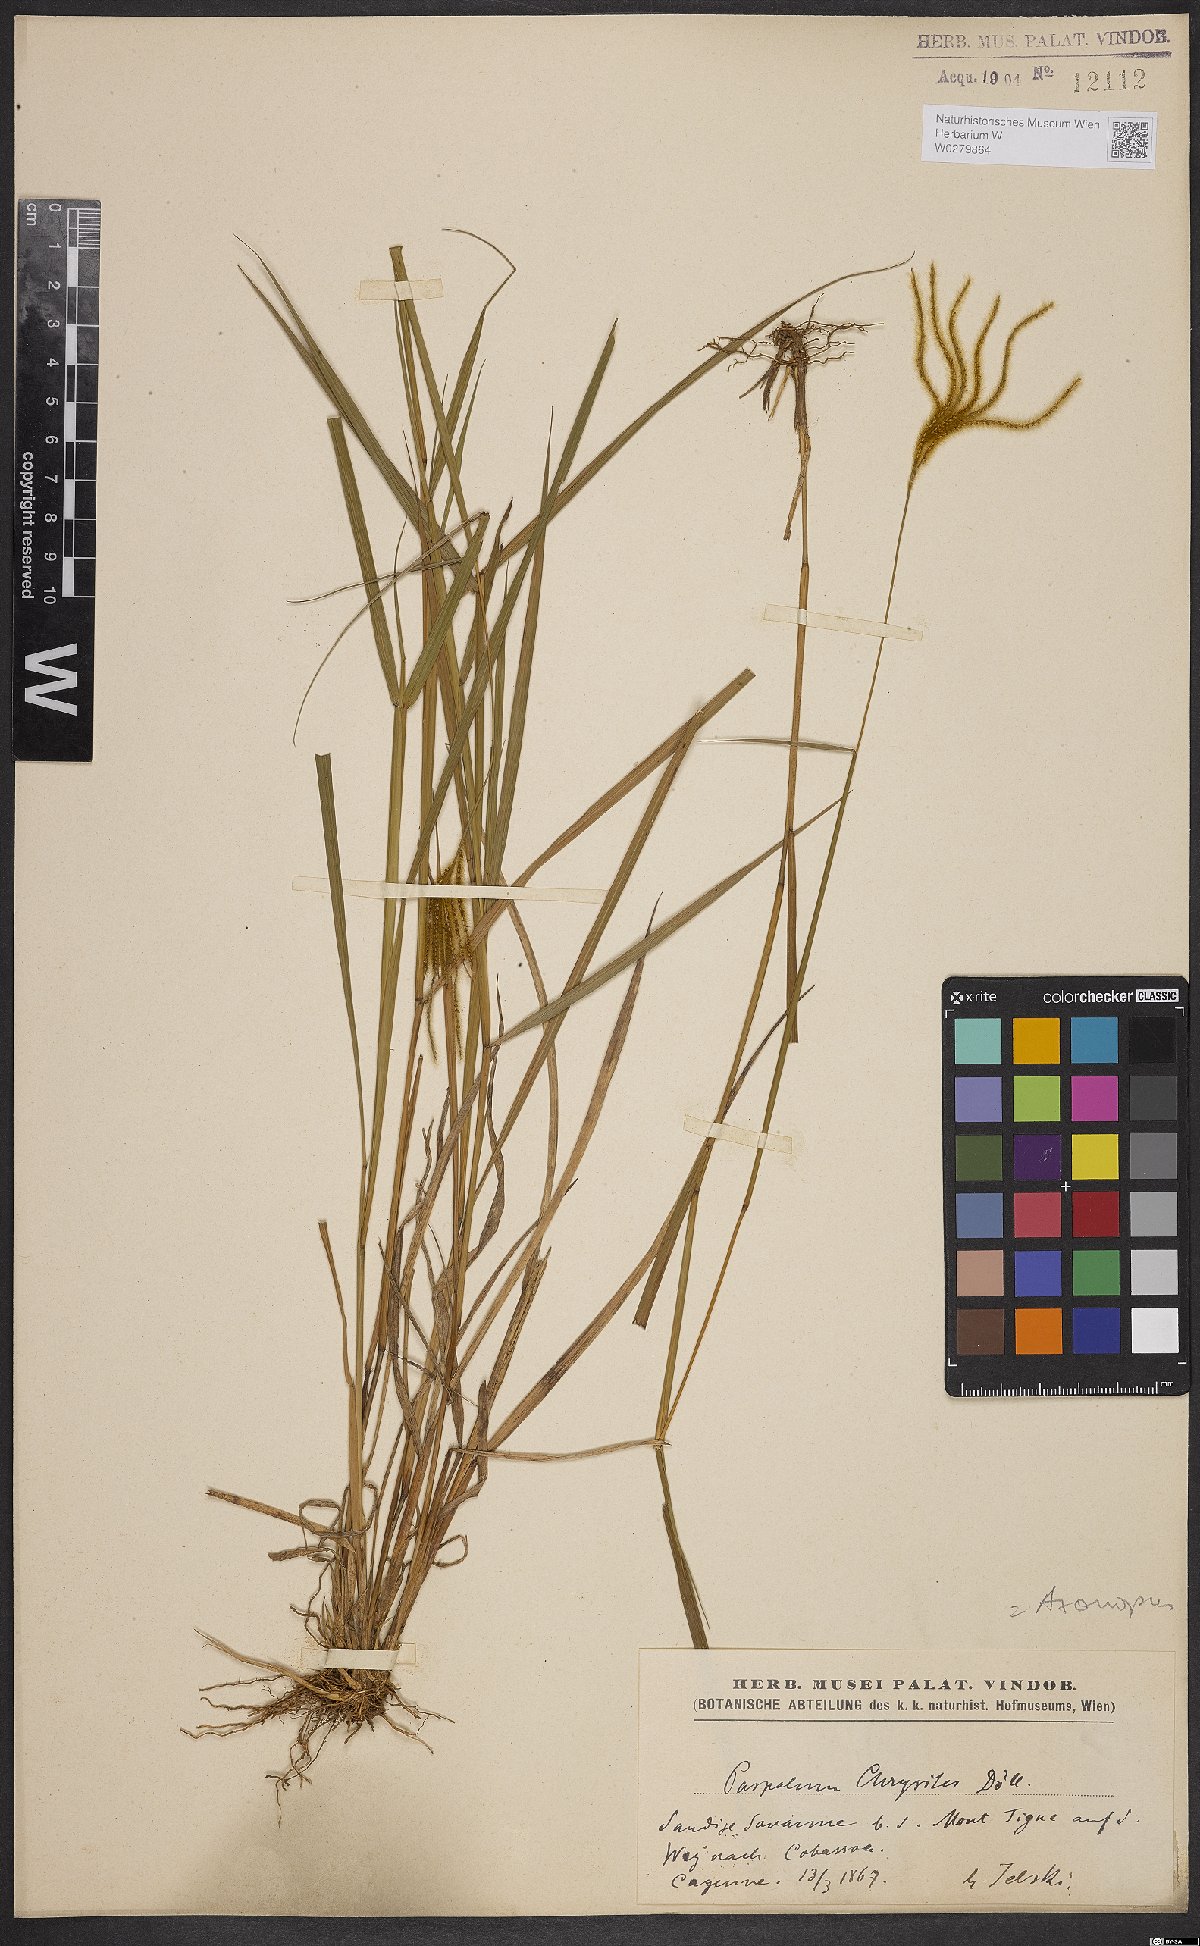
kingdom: Plantae
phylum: Tracheophyta
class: Liliopsida
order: Poales
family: Poaceae
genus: Axonopus
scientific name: Axonopus aureus
